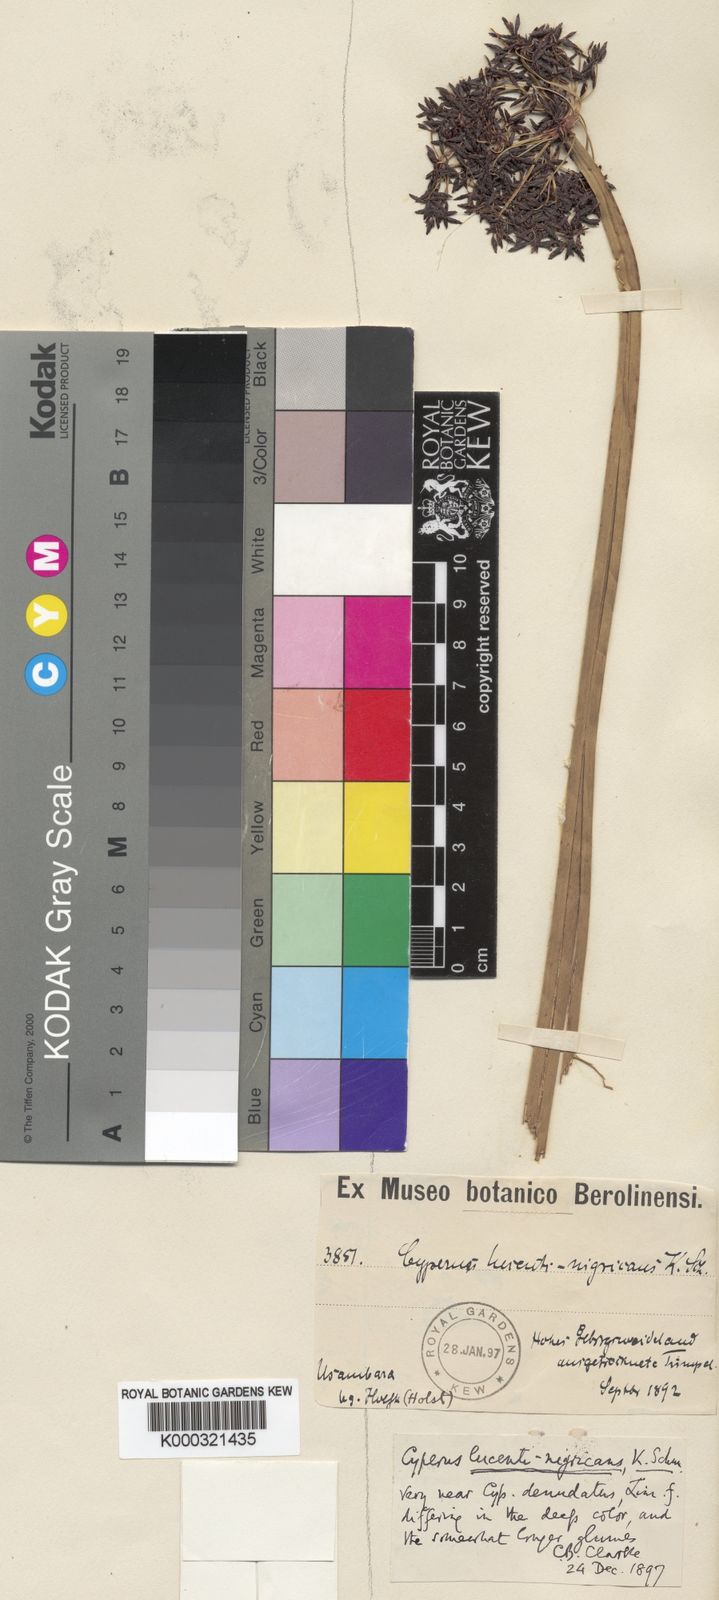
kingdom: Plantae
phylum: Tracheophyta
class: Liliopsida
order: Poales
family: Cyperaceae
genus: Cyperus
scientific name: Cyperus platycaulis
